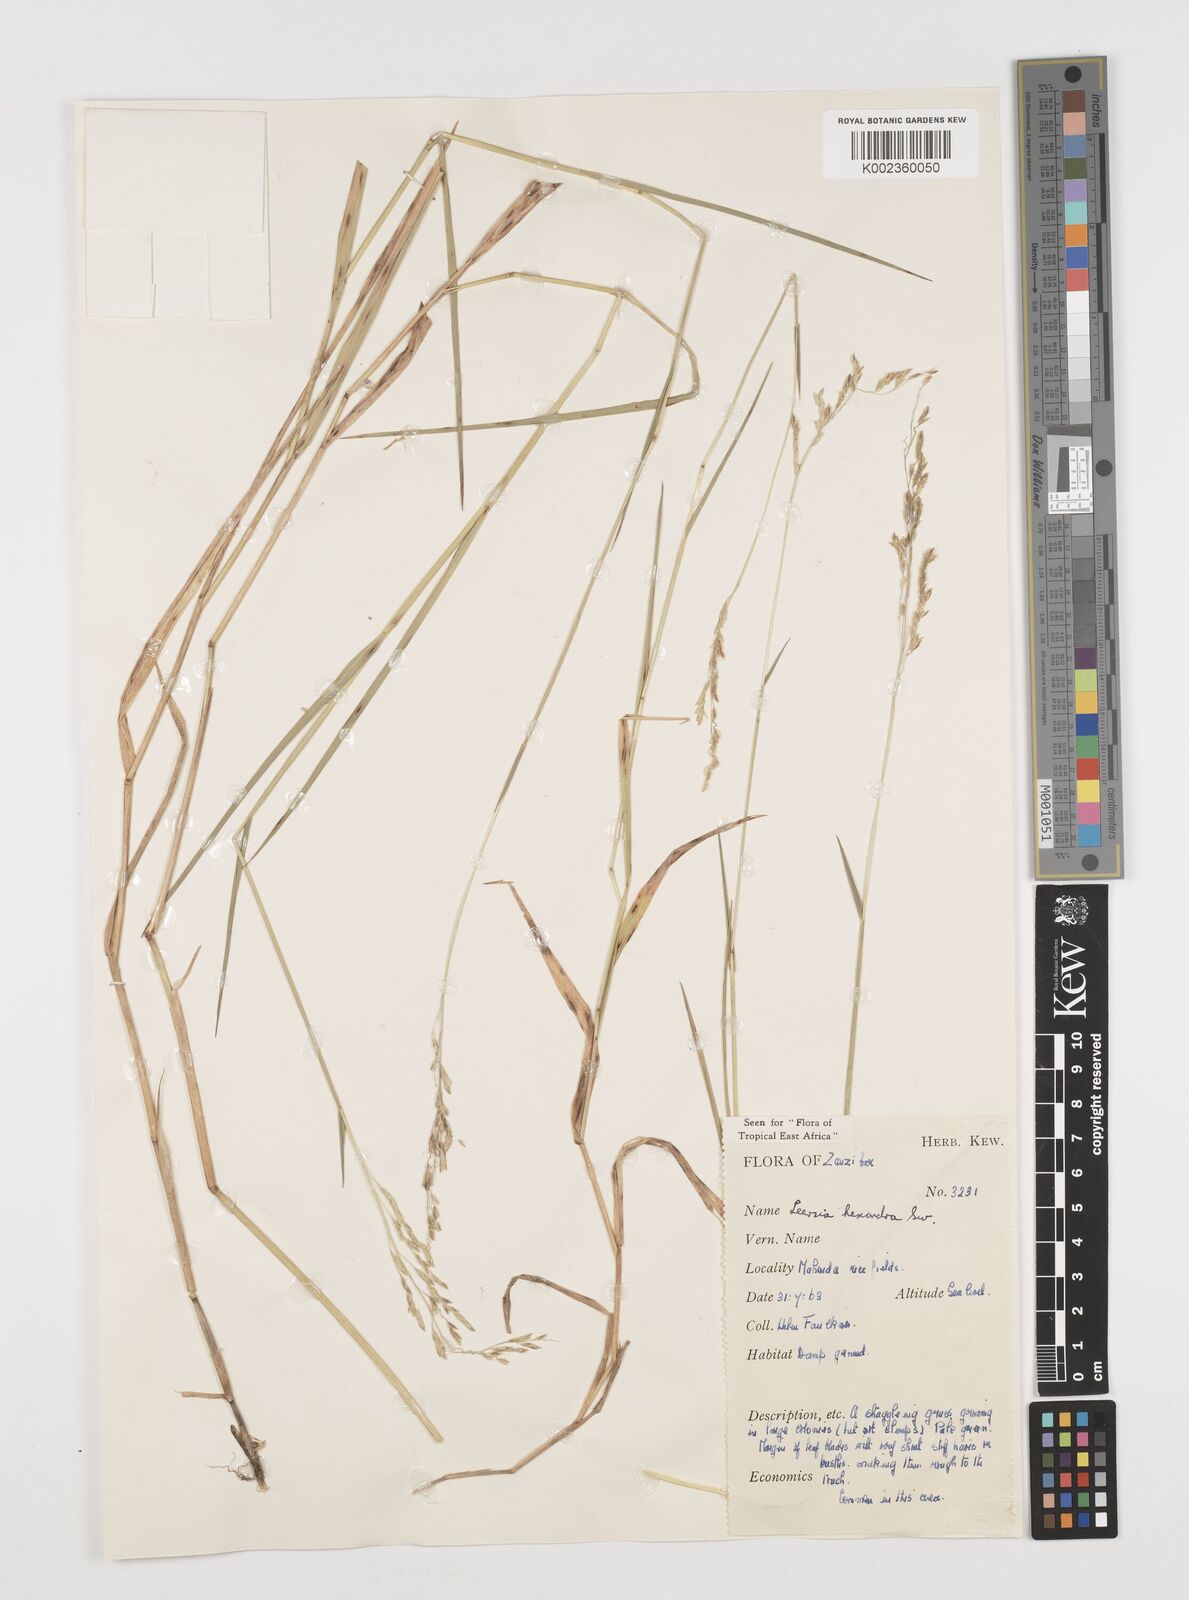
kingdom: Plantae
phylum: Tracheophyta
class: Liliopsida
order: Poales
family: Poaceae
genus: Leersia
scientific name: Leersia hexandra
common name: Southern cut grass
